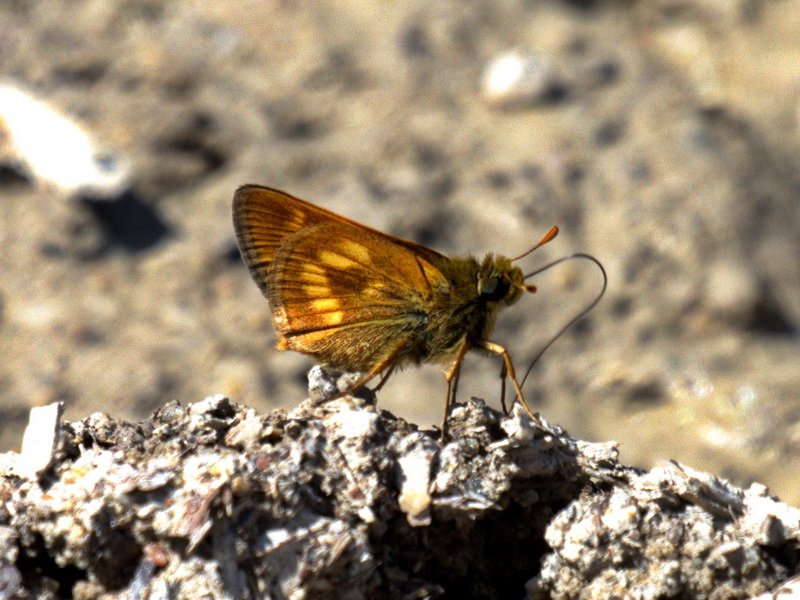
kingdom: Animalia
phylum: Arthropoda
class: Insecta
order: Lepidoptera
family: Hesperiidae
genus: Polites
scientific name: Polites
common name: Long Dash Skipper
